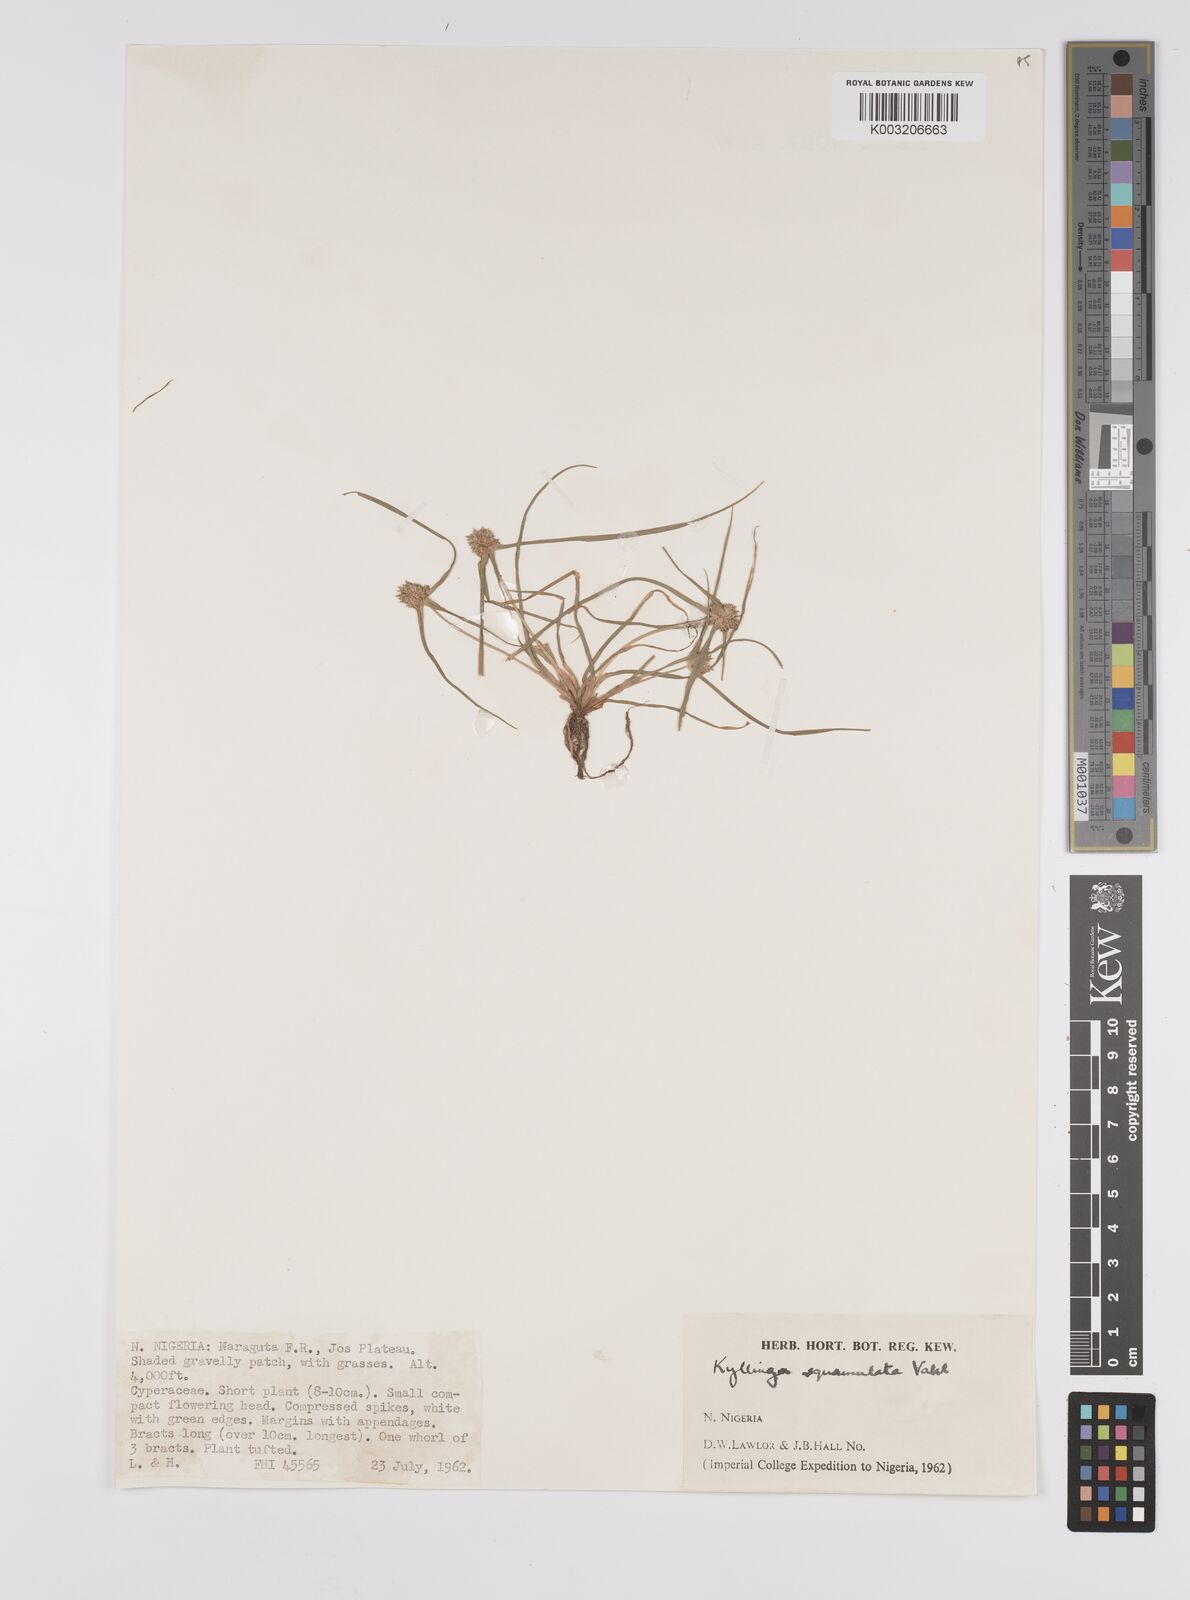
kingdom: Plantae
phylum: Tracheophyta
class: Liliopsida
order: Poales
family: Cyperaceae
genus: Cyperus
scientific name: Cyperus distans
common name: Slender cyperus
